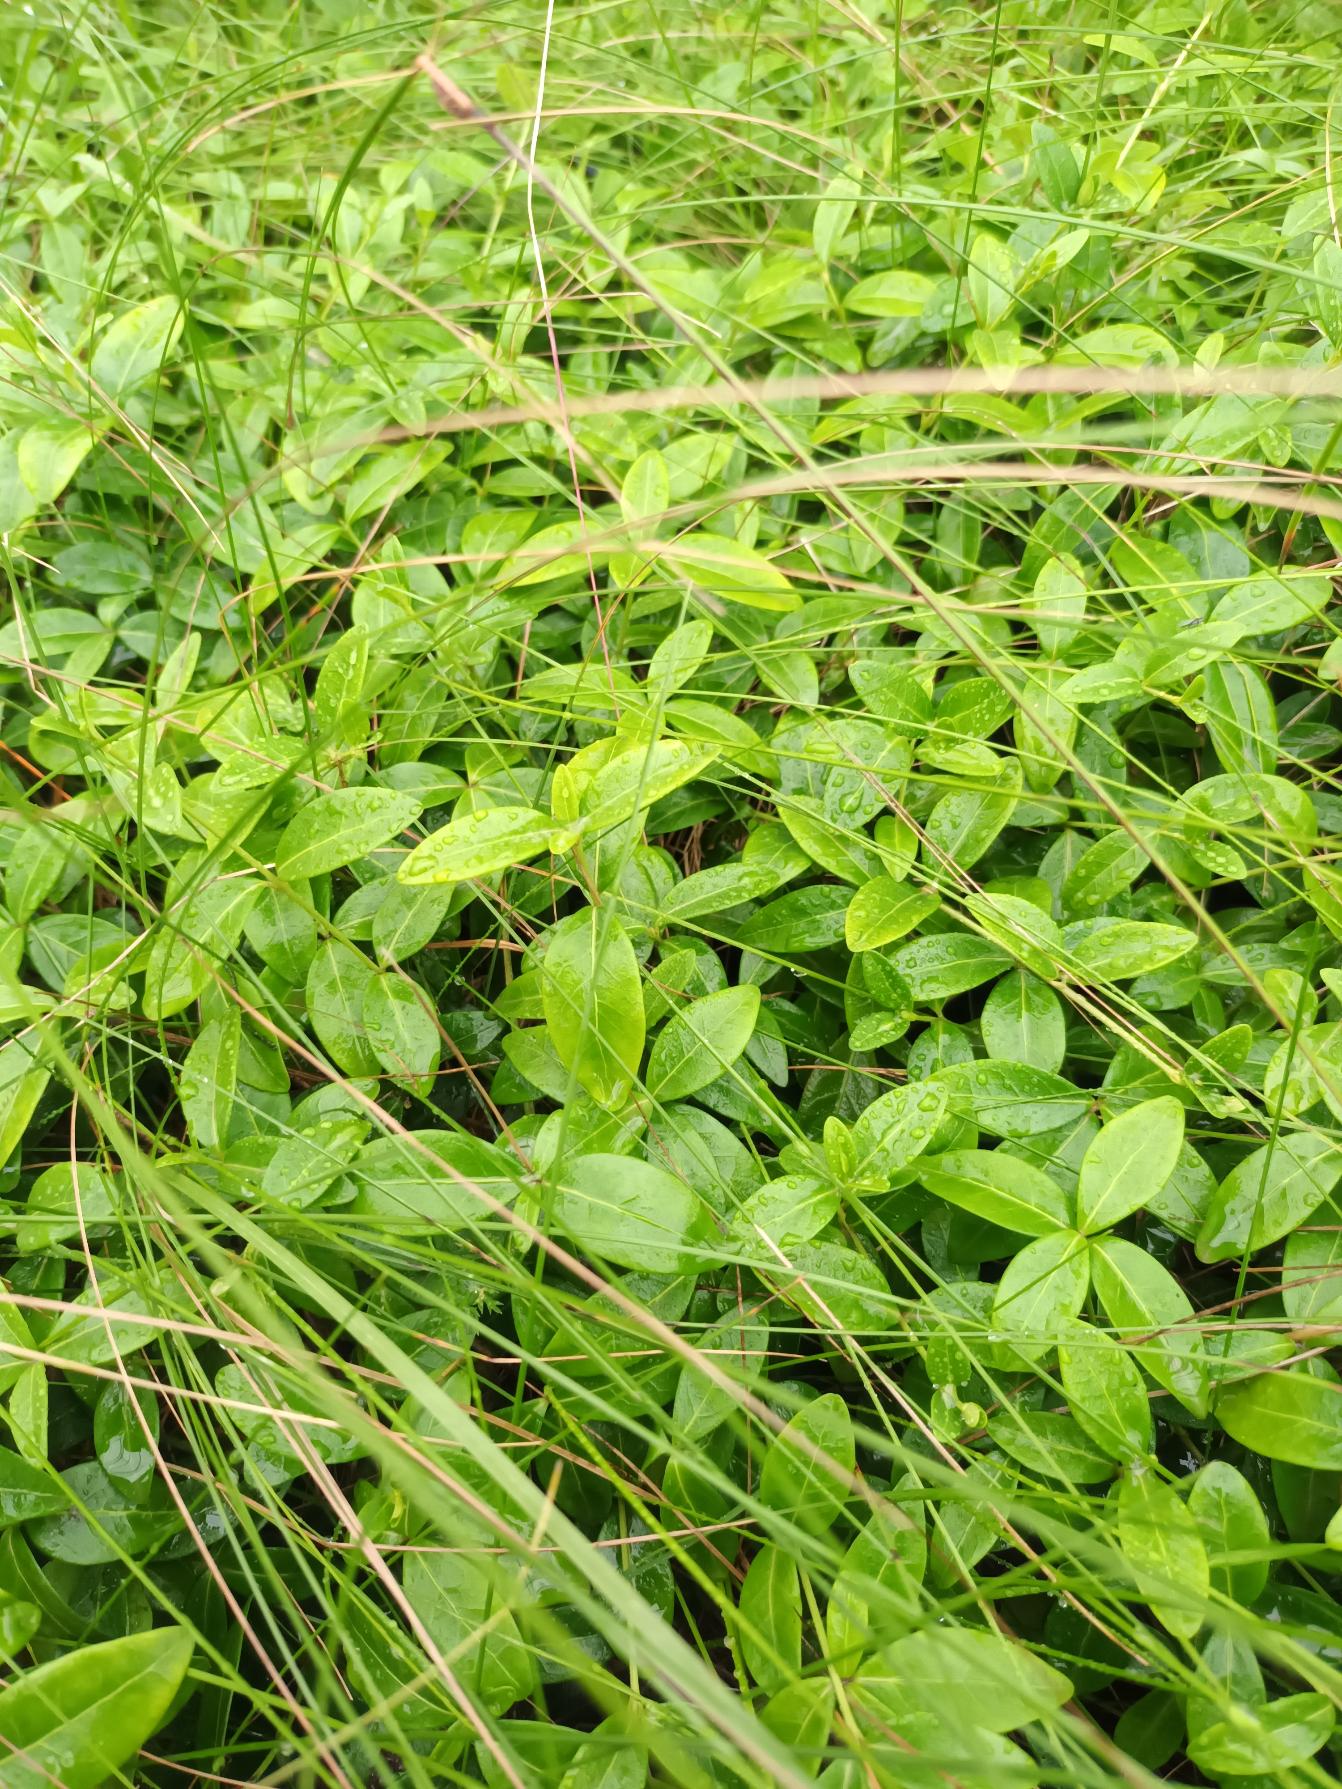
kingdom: Plantae
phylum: Tracheophyta
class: Magnoliopsida
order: Gentianales
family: Apocynaceae
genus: Vinca
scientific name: Vinca minor
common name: Liden singrøn
